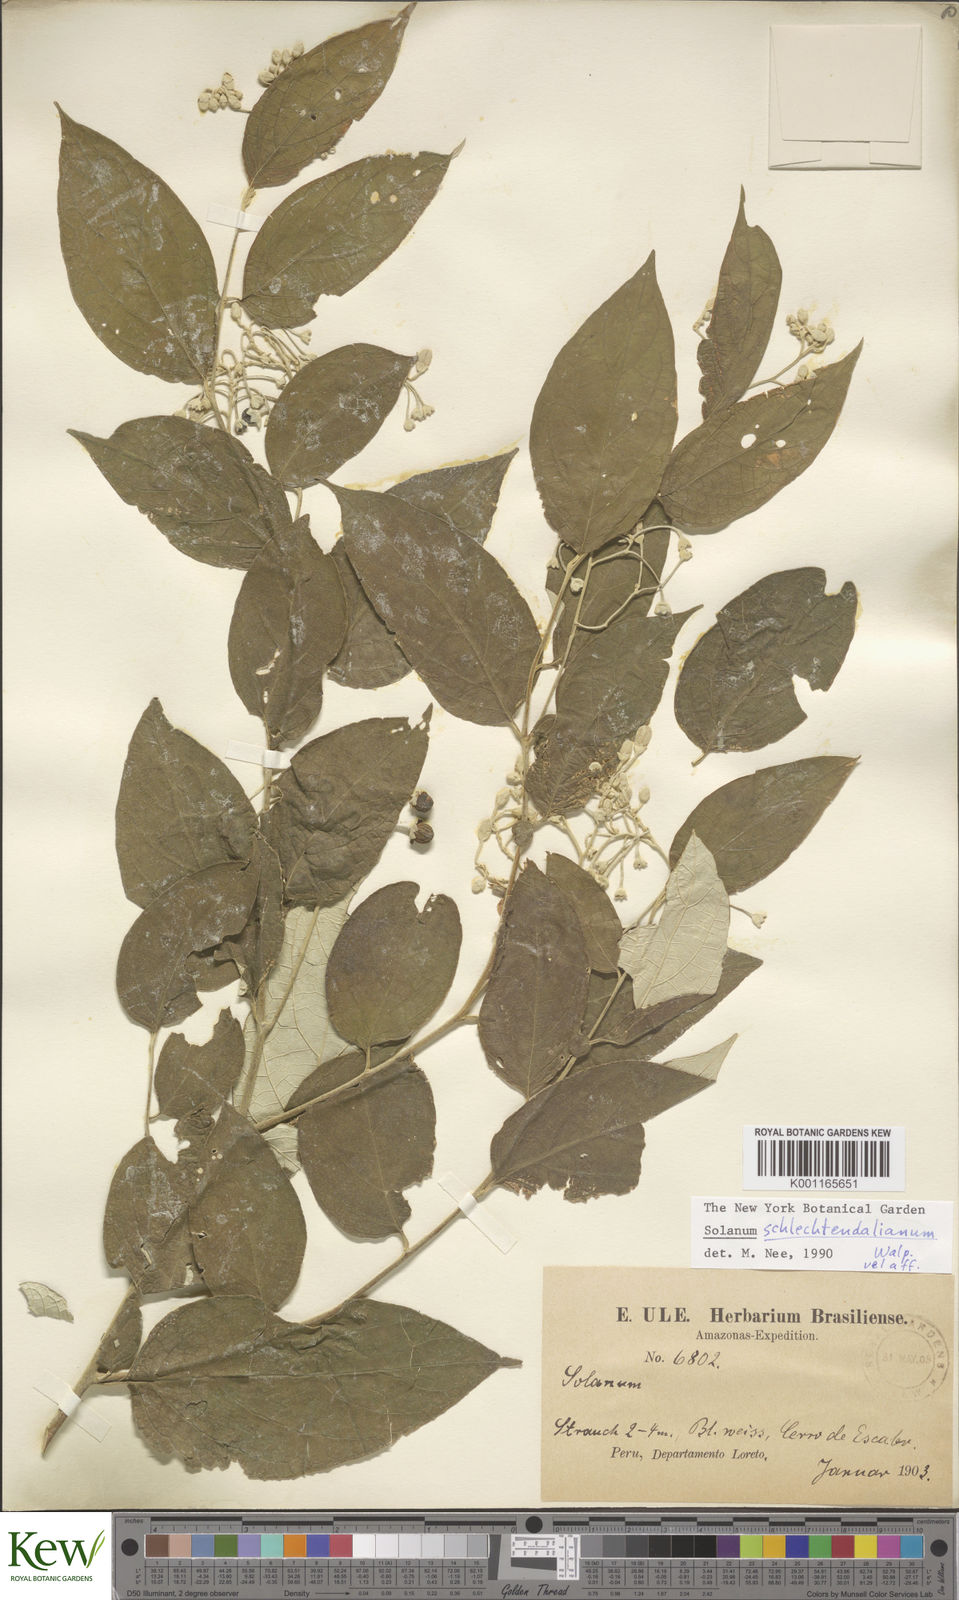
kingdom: Plantae
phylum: Tracheophyta
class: Magnoliopsida
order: Solanales
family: Solanaceae
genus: Solanum
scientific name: Solanum schlechtendalianum
